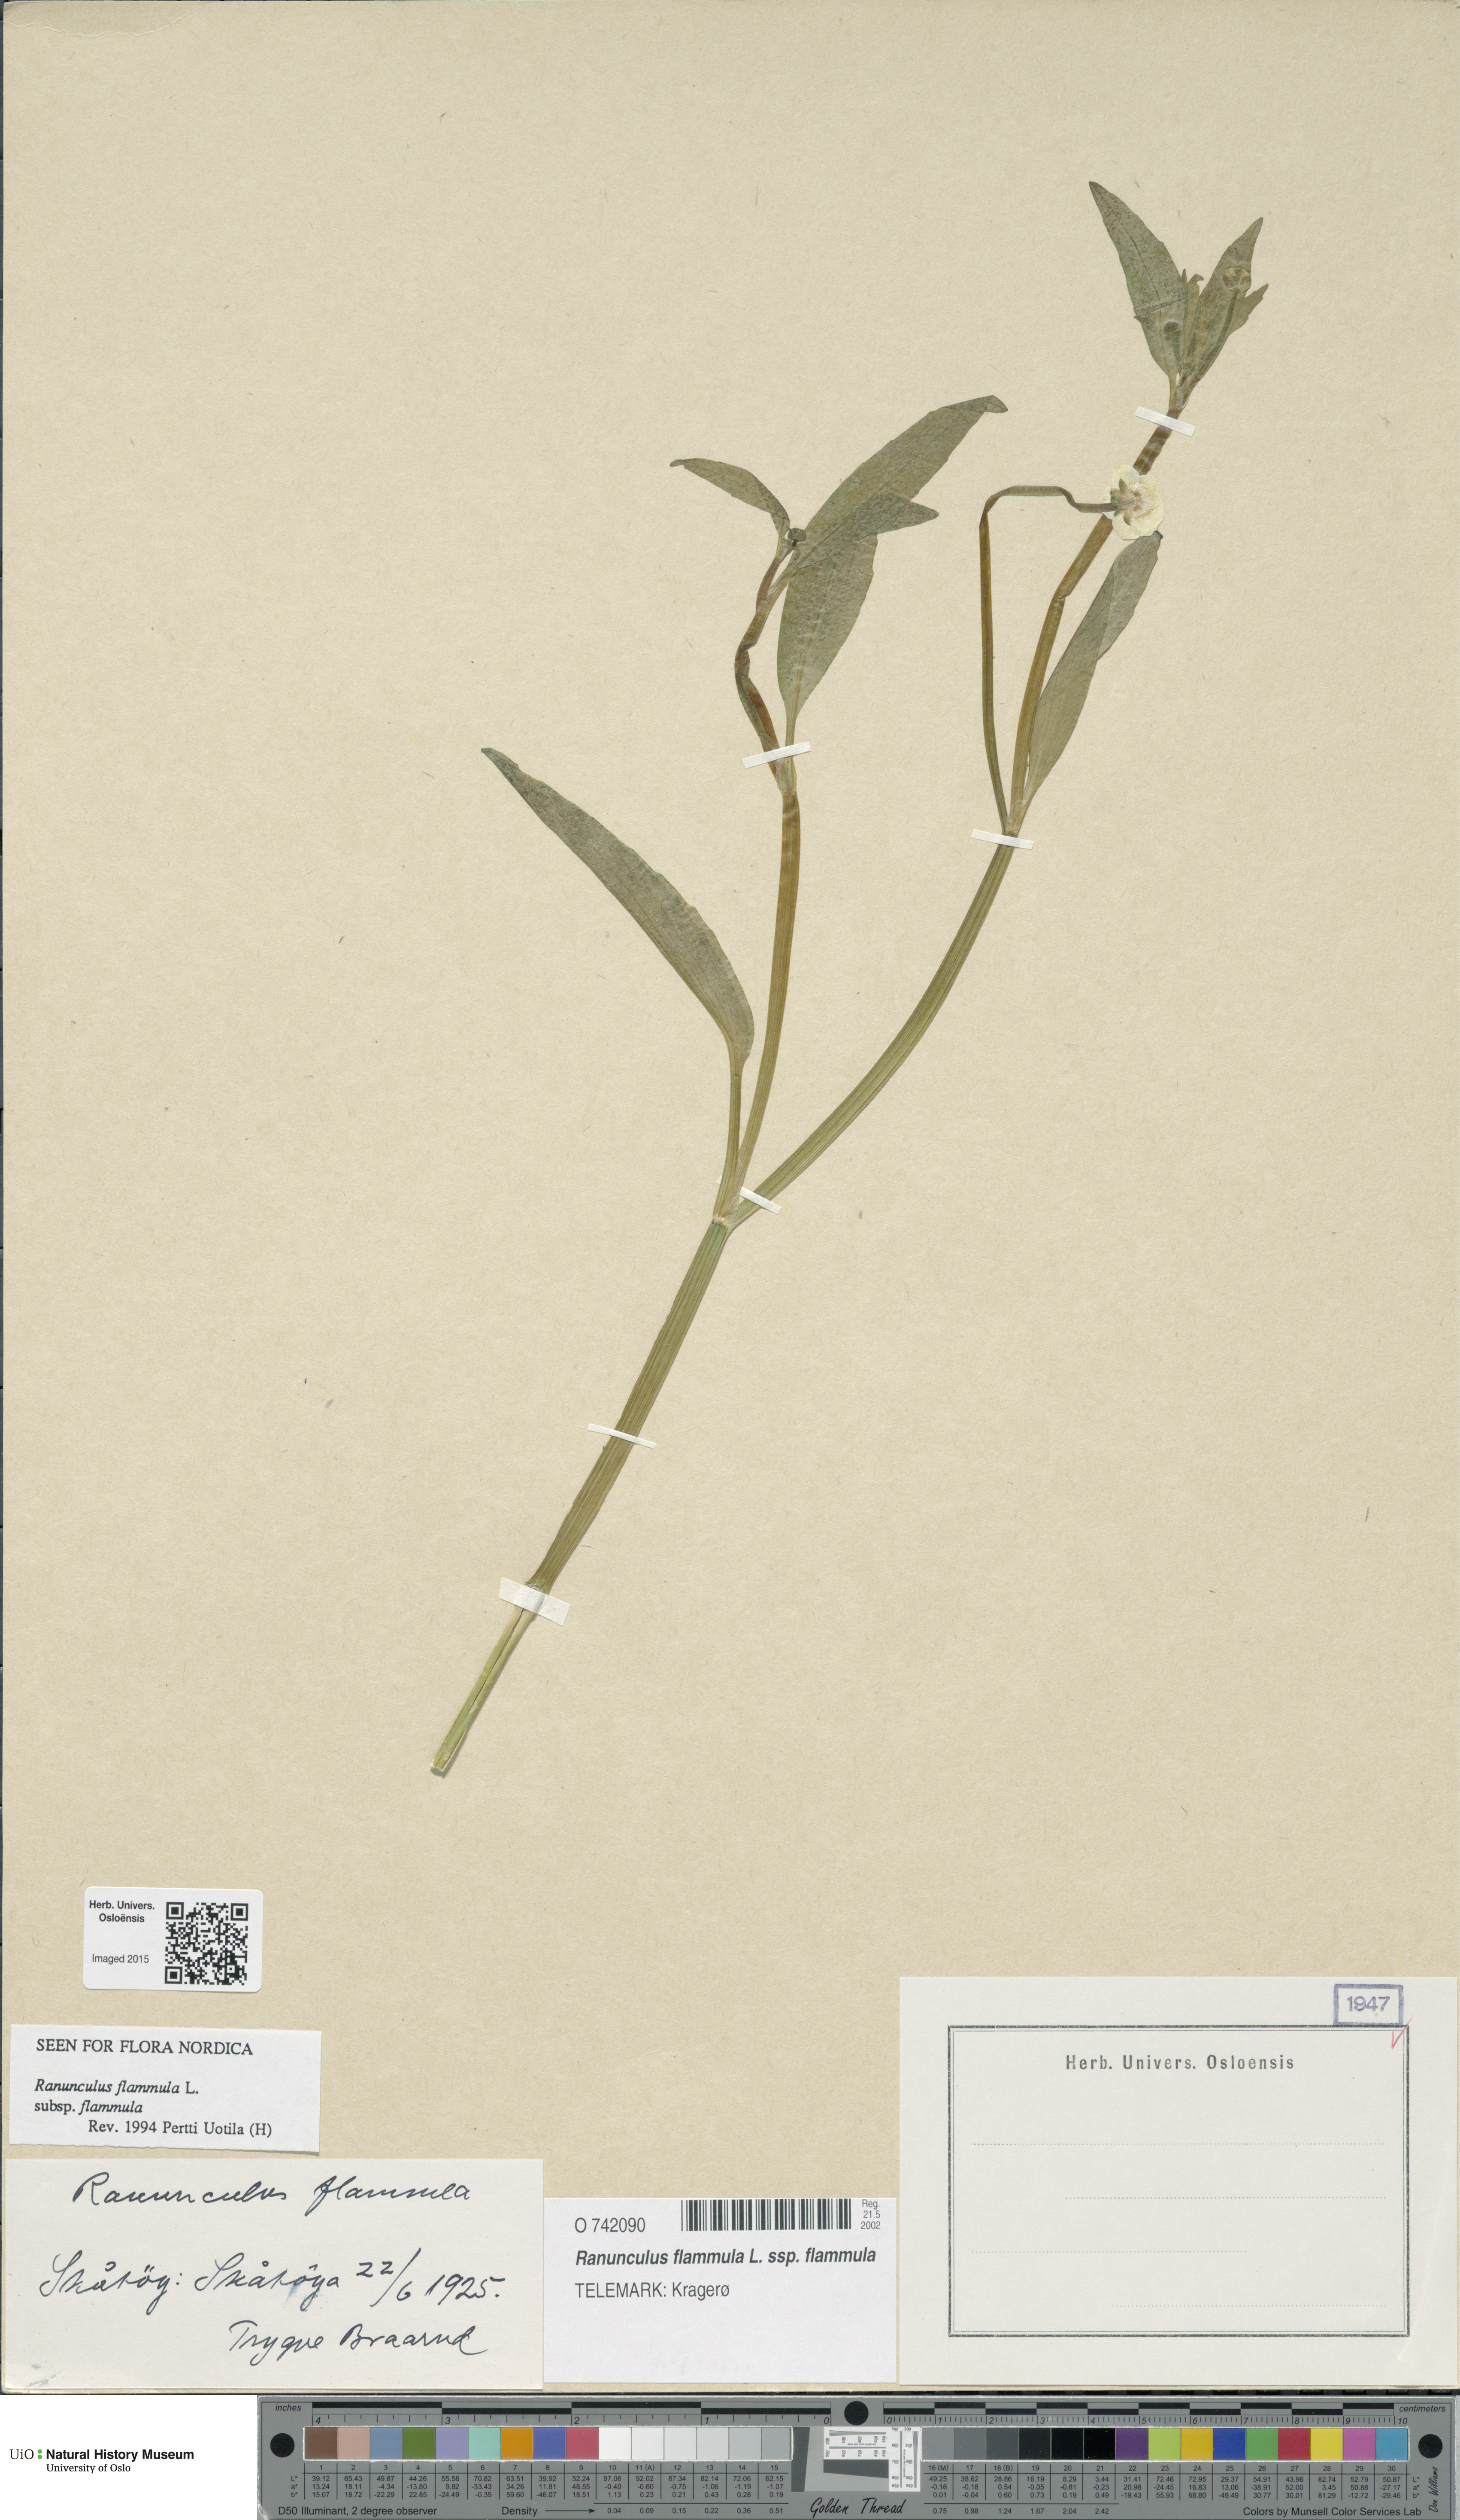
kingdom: Plantae
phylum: Tracheophyta
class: Magnoliopsida
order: Ranunculales
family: Ranunculaceae
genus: Ranunculus
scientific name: Ranunculus flammula
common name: Lesser spearwort
